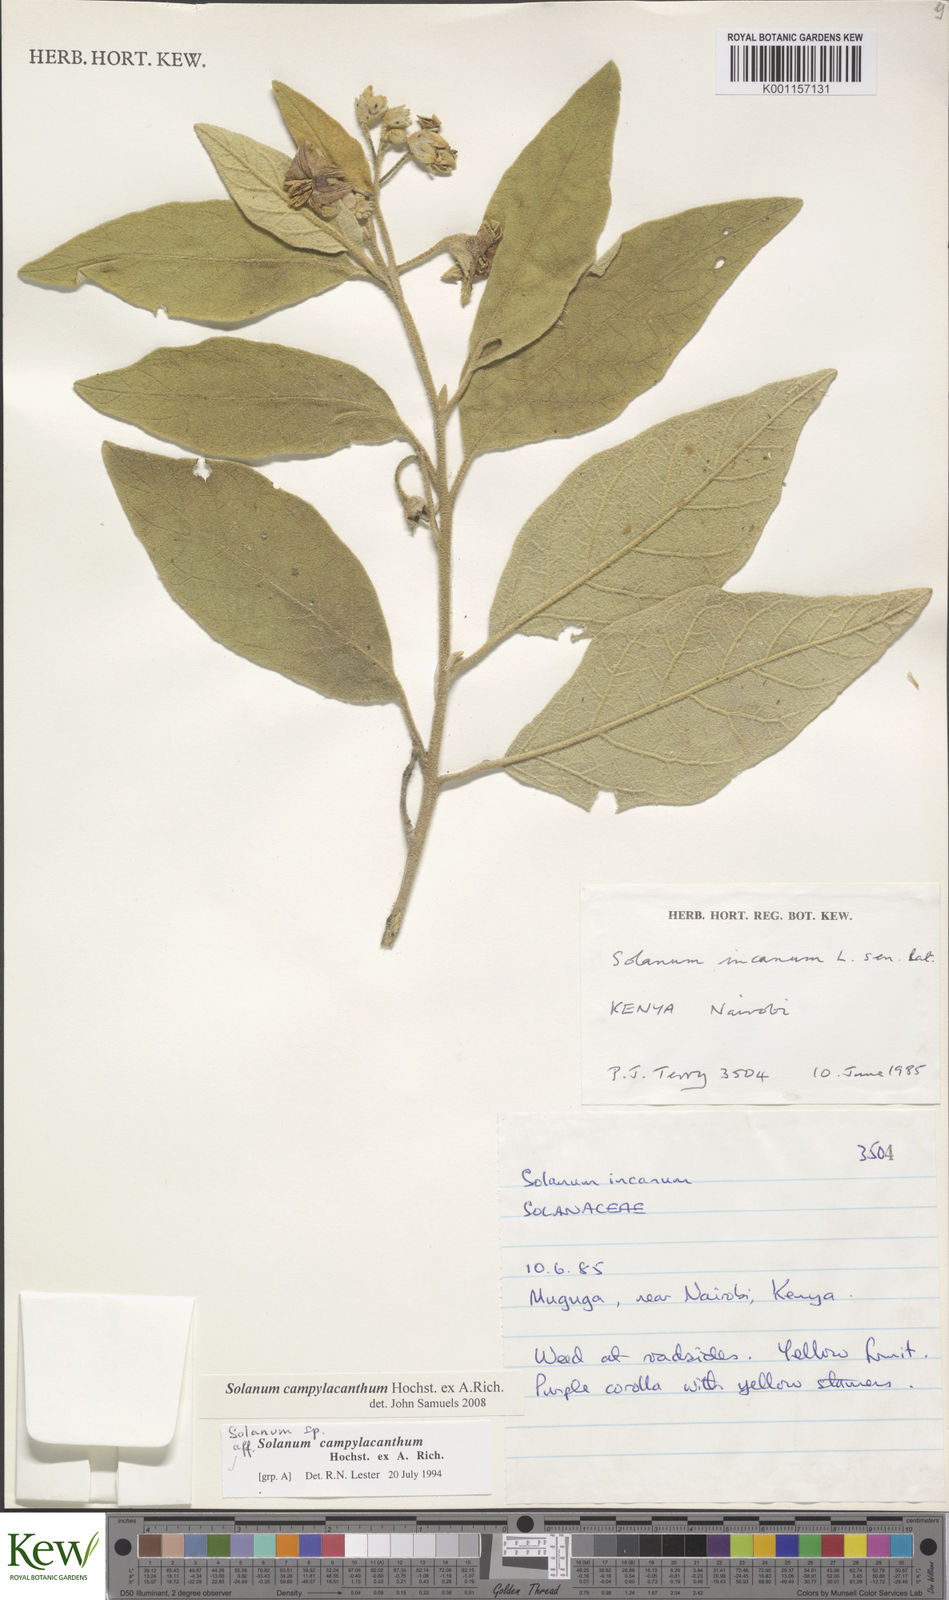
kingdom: Plantae
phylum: Tracheophyta
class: Magnoliopsida
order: Solanales
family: Solanaceae
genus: Solanum
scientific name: Solanum campylacanthum
